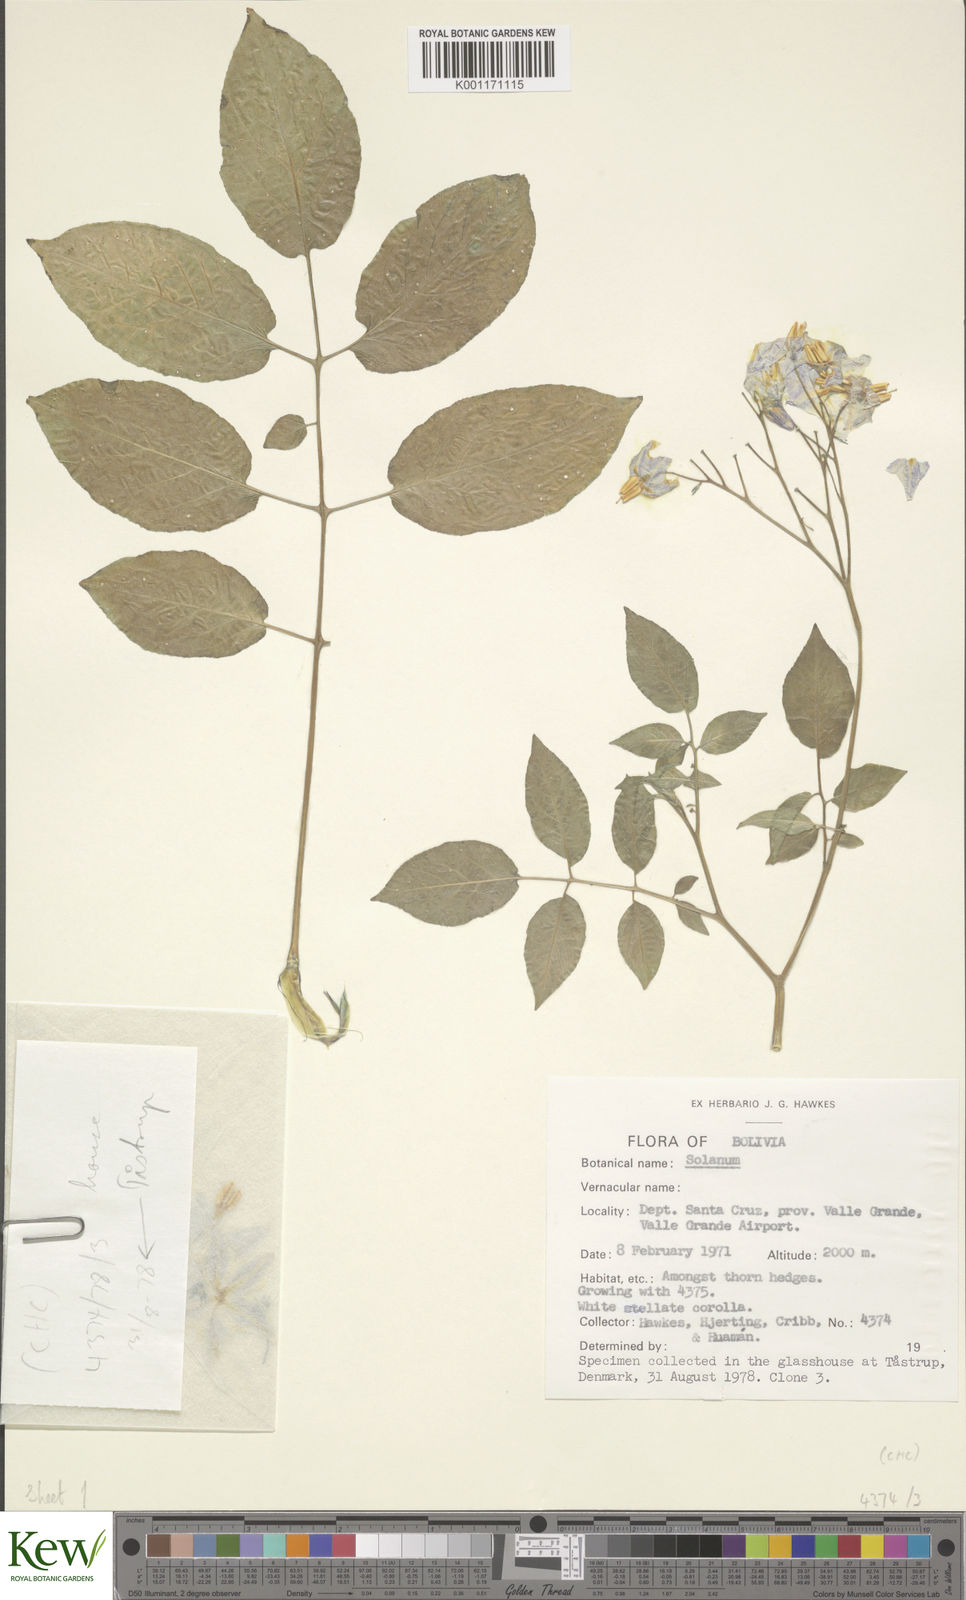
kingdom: Plantae
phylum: Tracheophyta
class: Magnoliopsida
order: Solanales
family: Solanaceae
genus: Solanum
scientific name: Solanum chacoense
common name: Chaco potato
